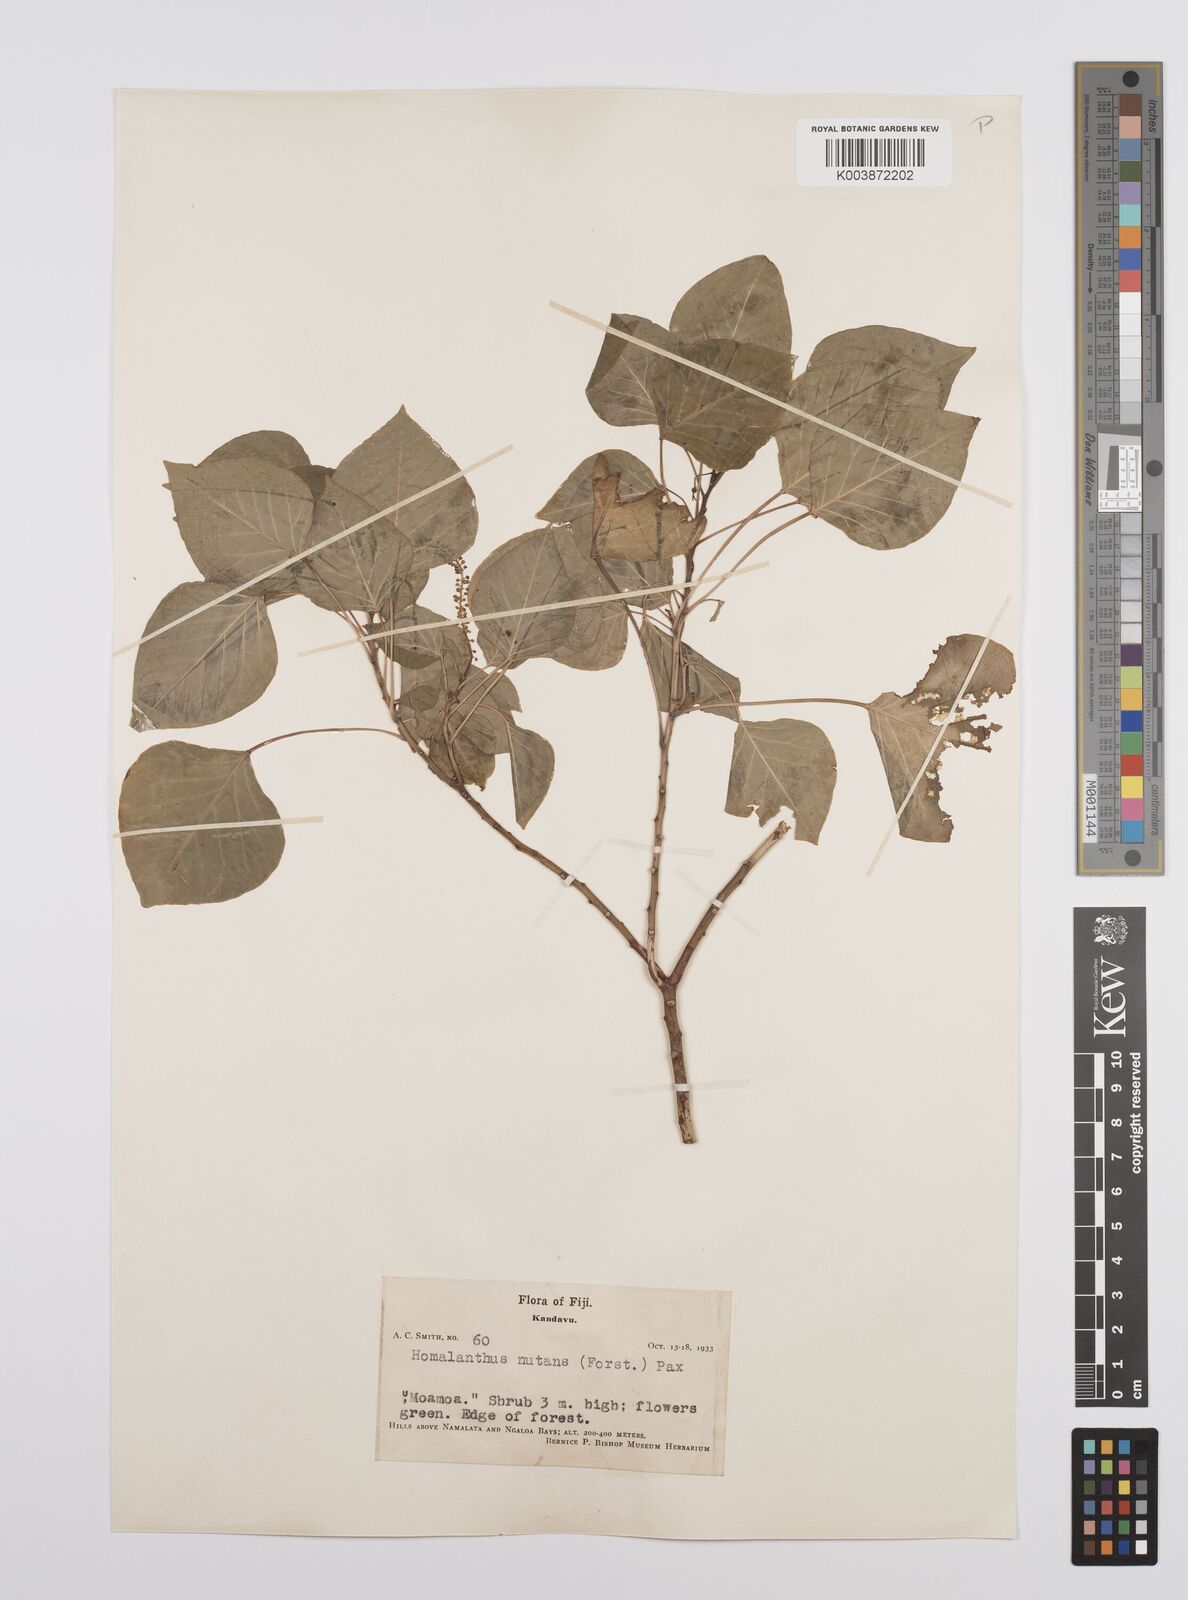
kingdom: Plantae
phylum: Tracheophyta
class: Magnoliopsida
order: Malpighiales
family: Euphorbiaceae
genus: Homalanthus
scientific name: Homalanthus nutans
